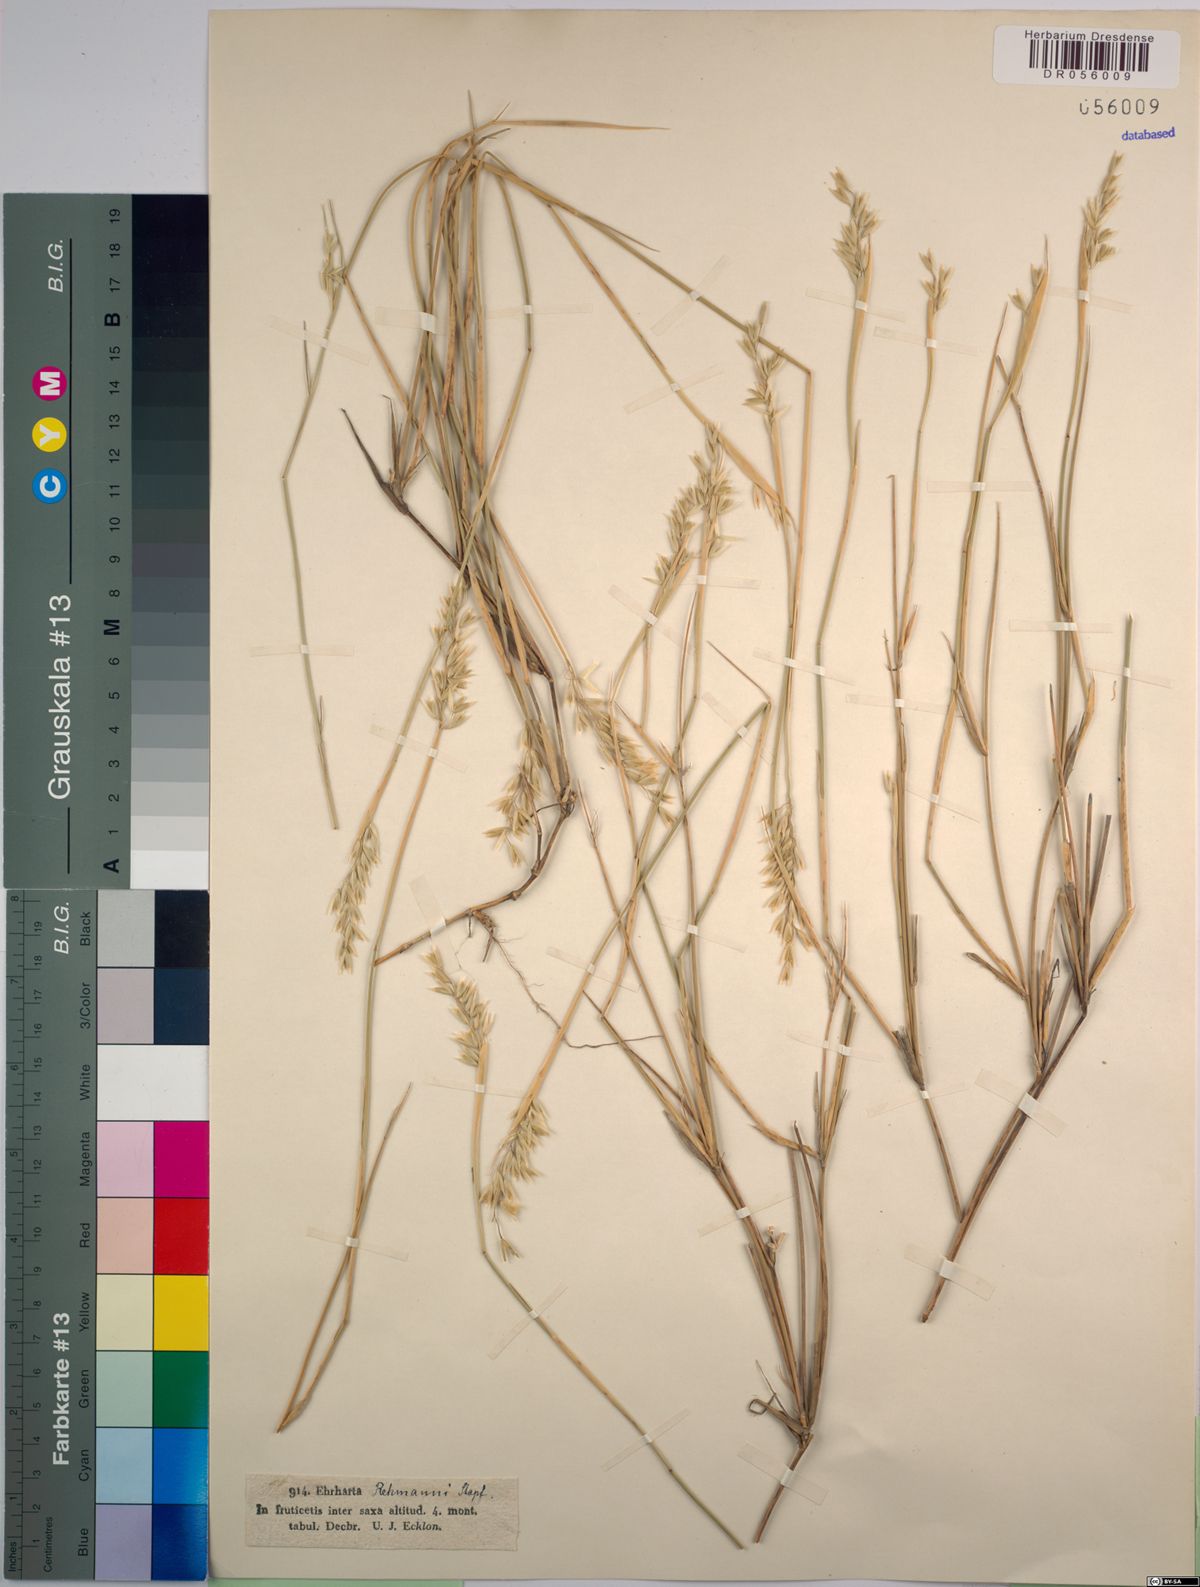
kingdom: Plantae
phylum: Tracheophyta
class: Liliopsida
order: Poales
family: Poaceae
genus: Ehrharta
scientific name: Ehrharta rehmannii
